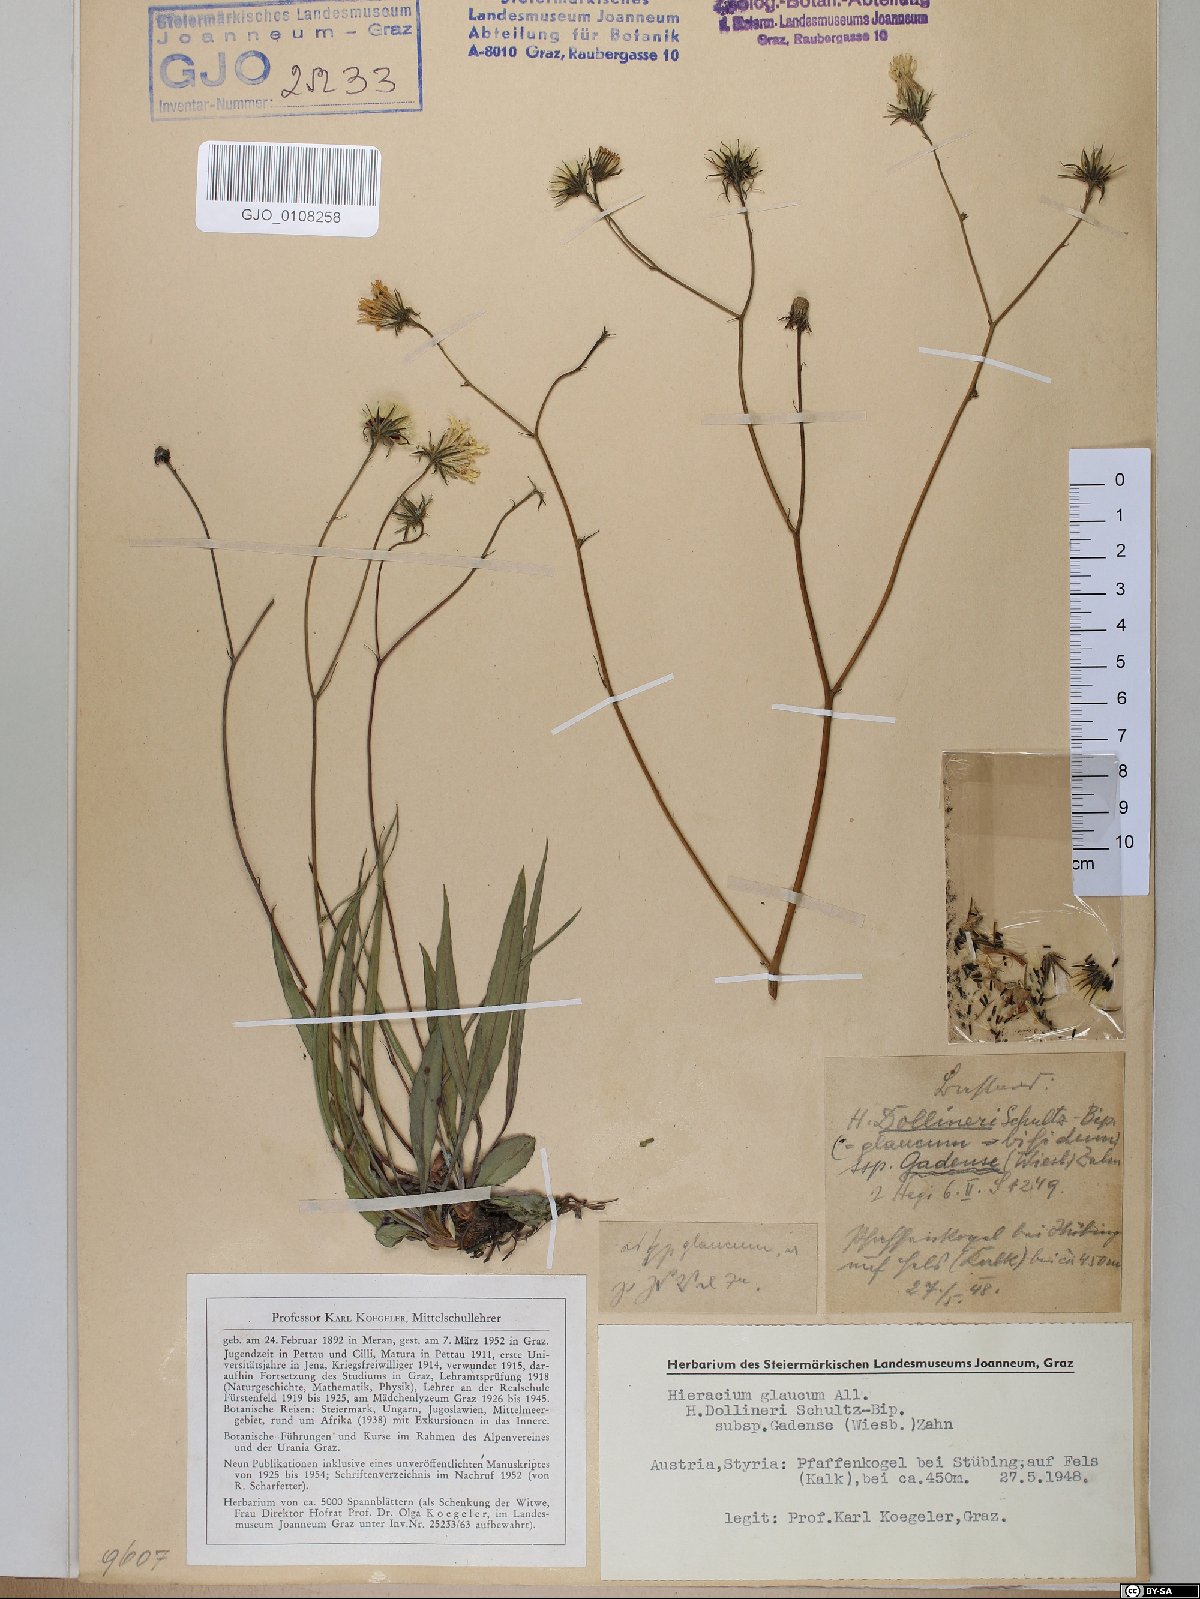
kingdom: Plantae
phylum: Tracheophyta
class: Magnoliopsida
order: Asterales
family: Asteraceae
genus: Hieracium
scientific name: Hieracium dollineri
